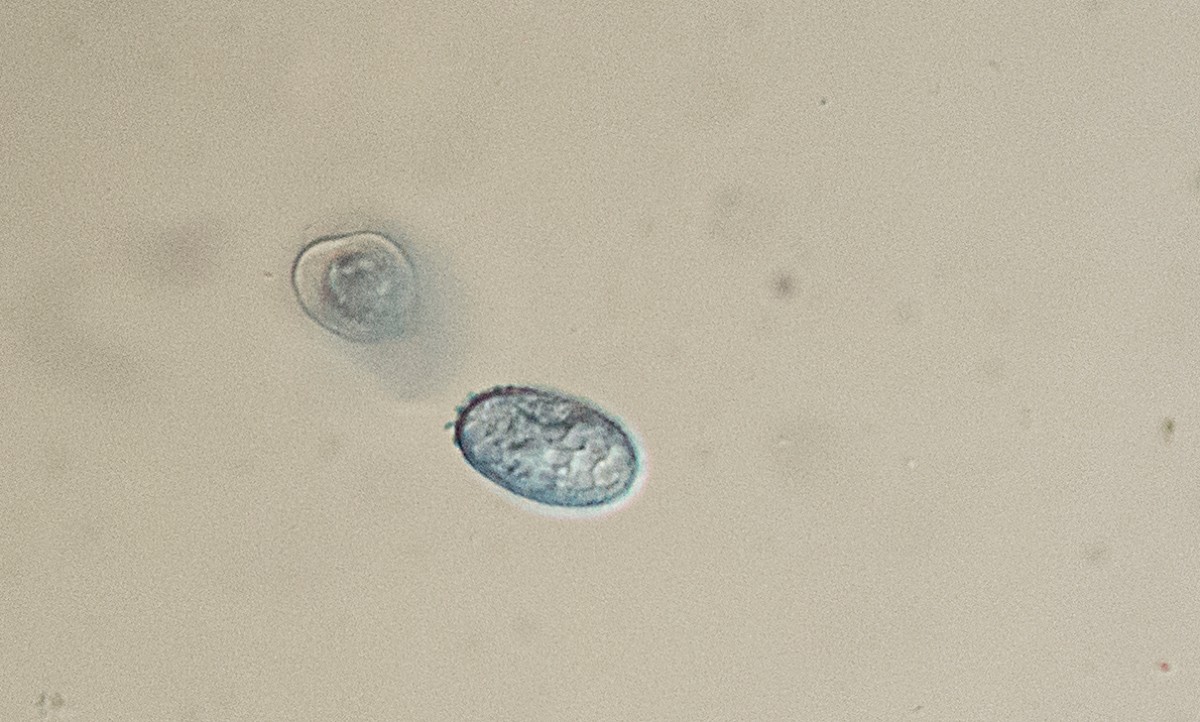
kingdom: Fungi
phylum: Ascomycota
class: Pezizomycetes
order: Pezizales
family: Pyronemataceae
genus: Scutellinia
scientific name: Scutellinia
